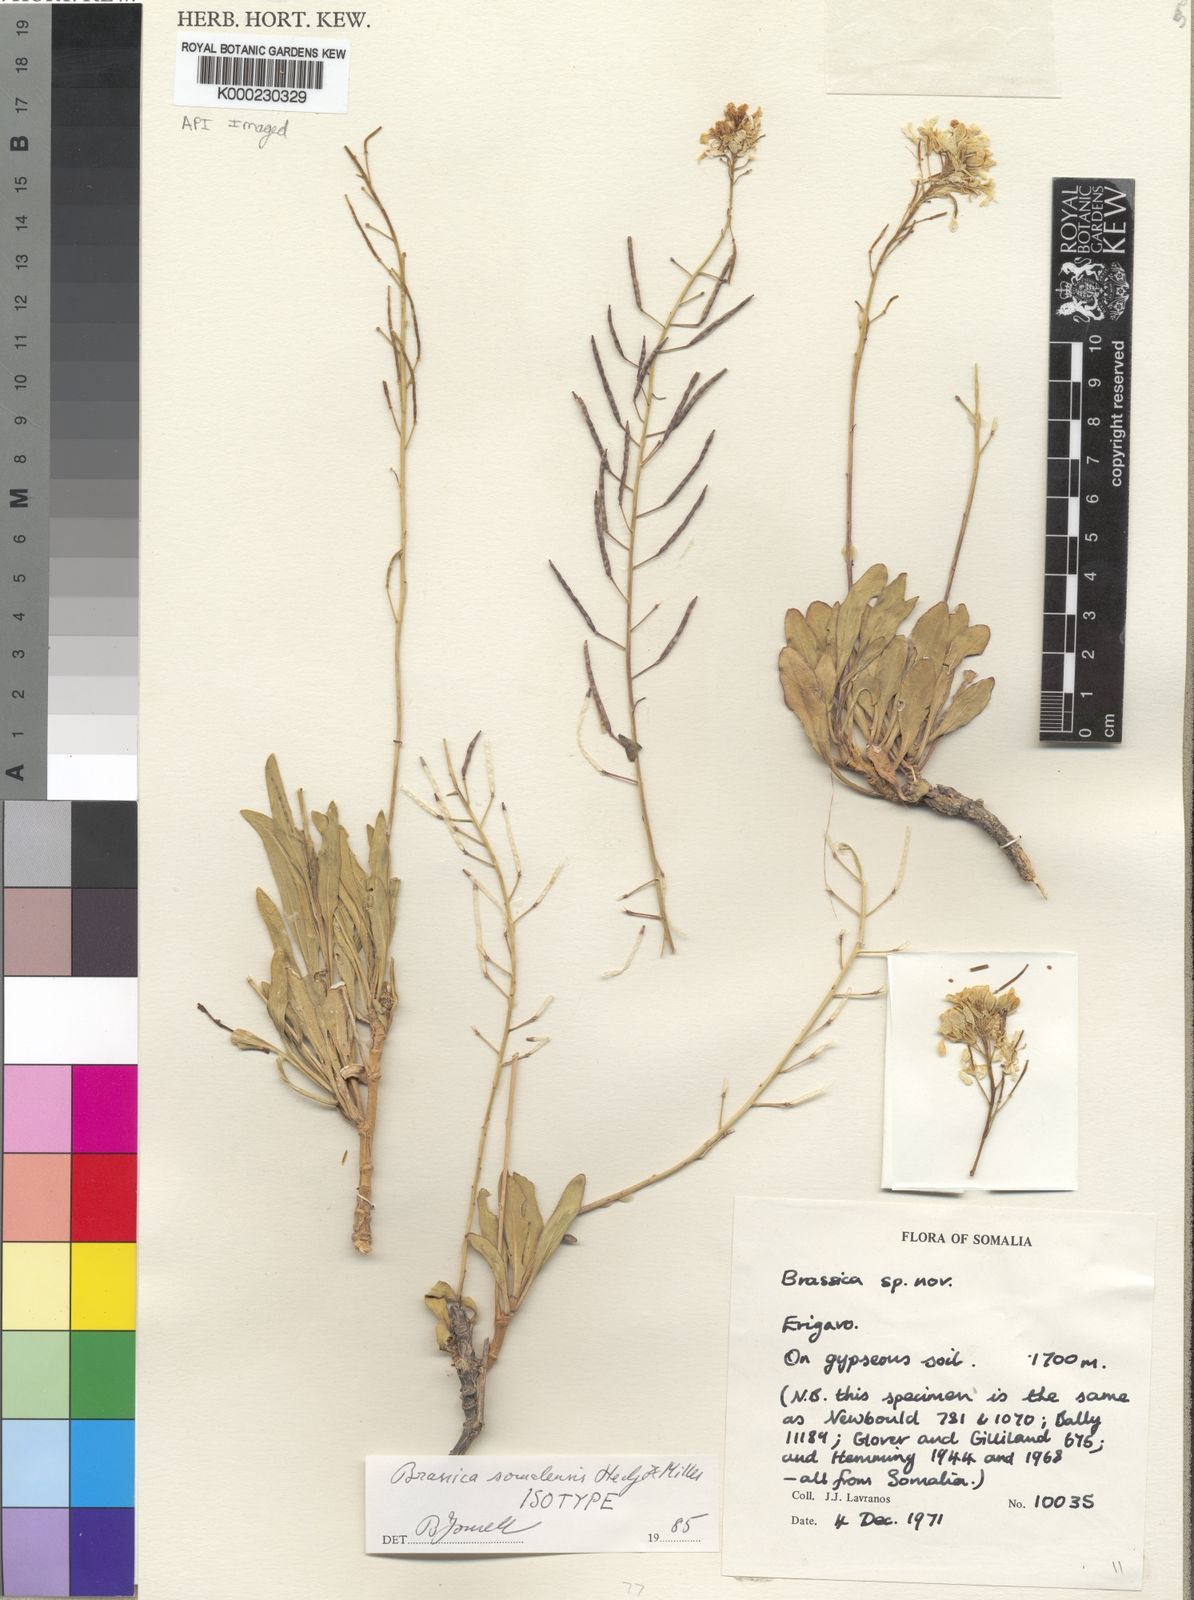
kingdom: Plantae
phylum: Tracheophyta
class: Magnoliopsida
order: Brassicales
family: Brassicaceae
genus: Brassica
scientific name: Brassica somalensis
